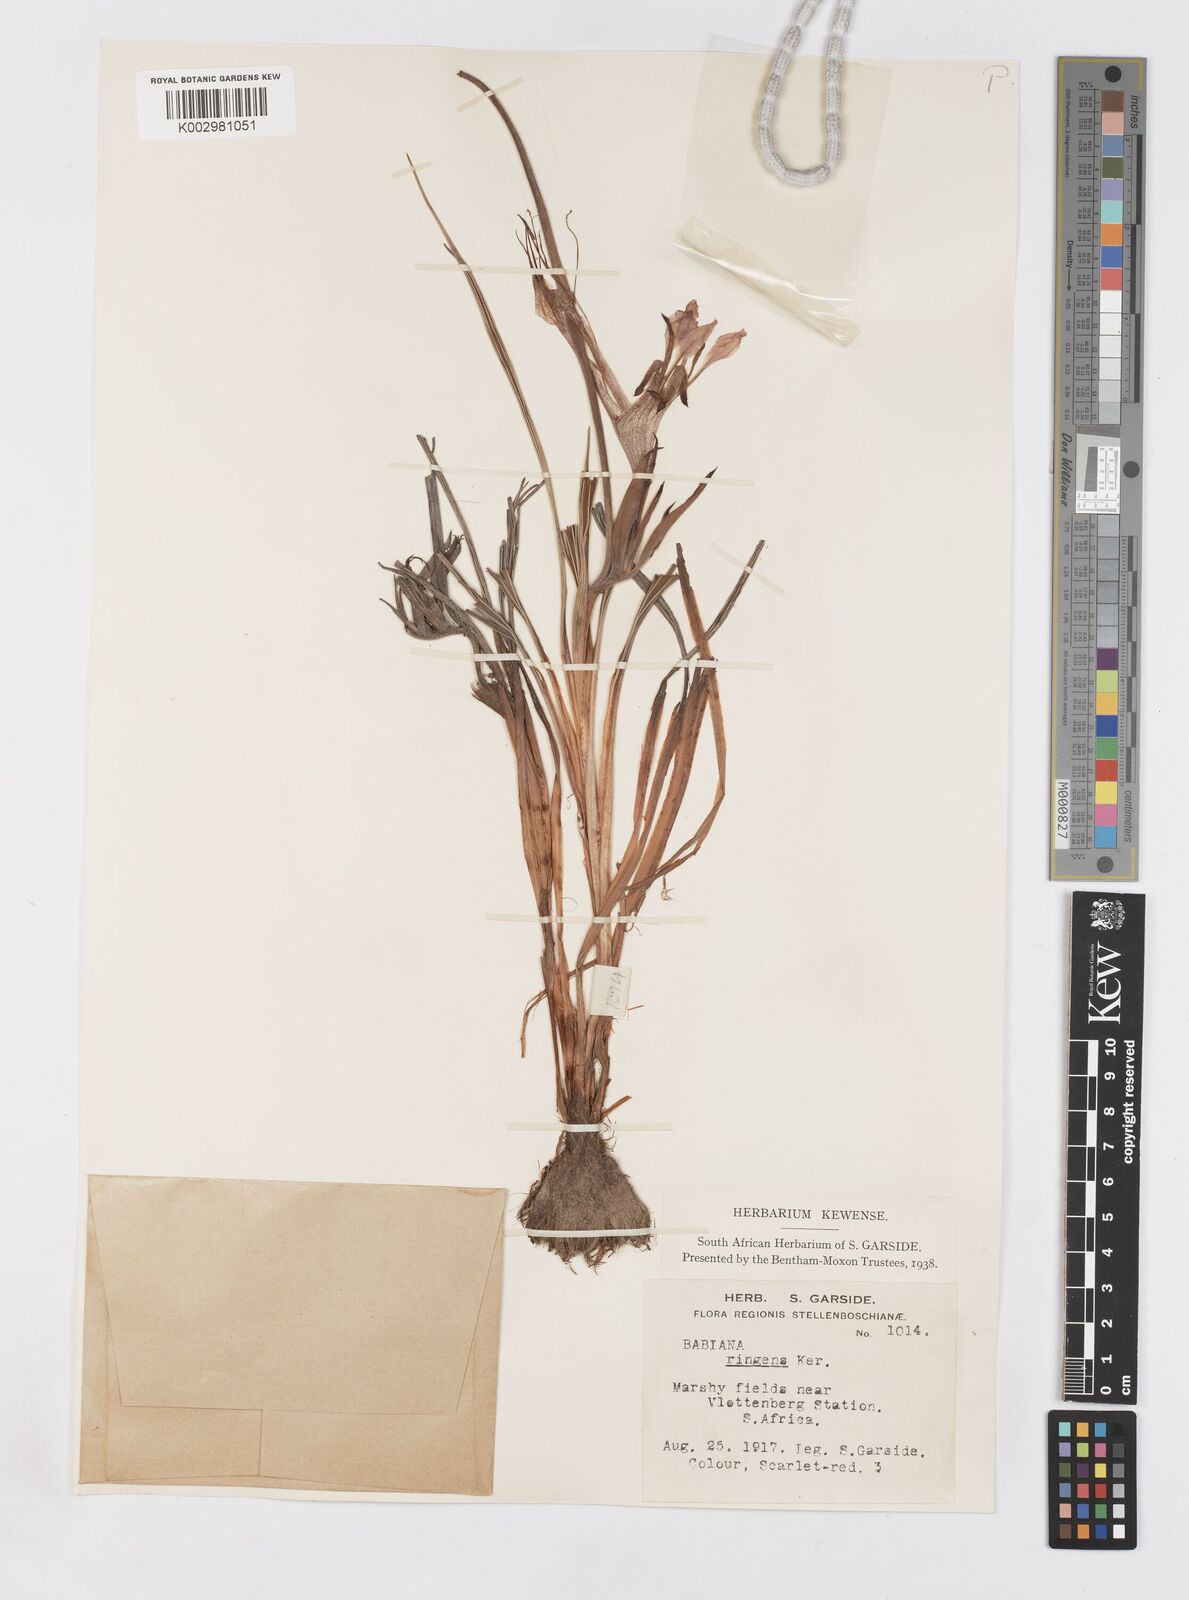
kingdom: Plantae
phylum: Tracheophyta
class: Liliopsida
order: Asparagales
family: Iridaceae
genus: Babiana
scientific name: Babiana ringens
